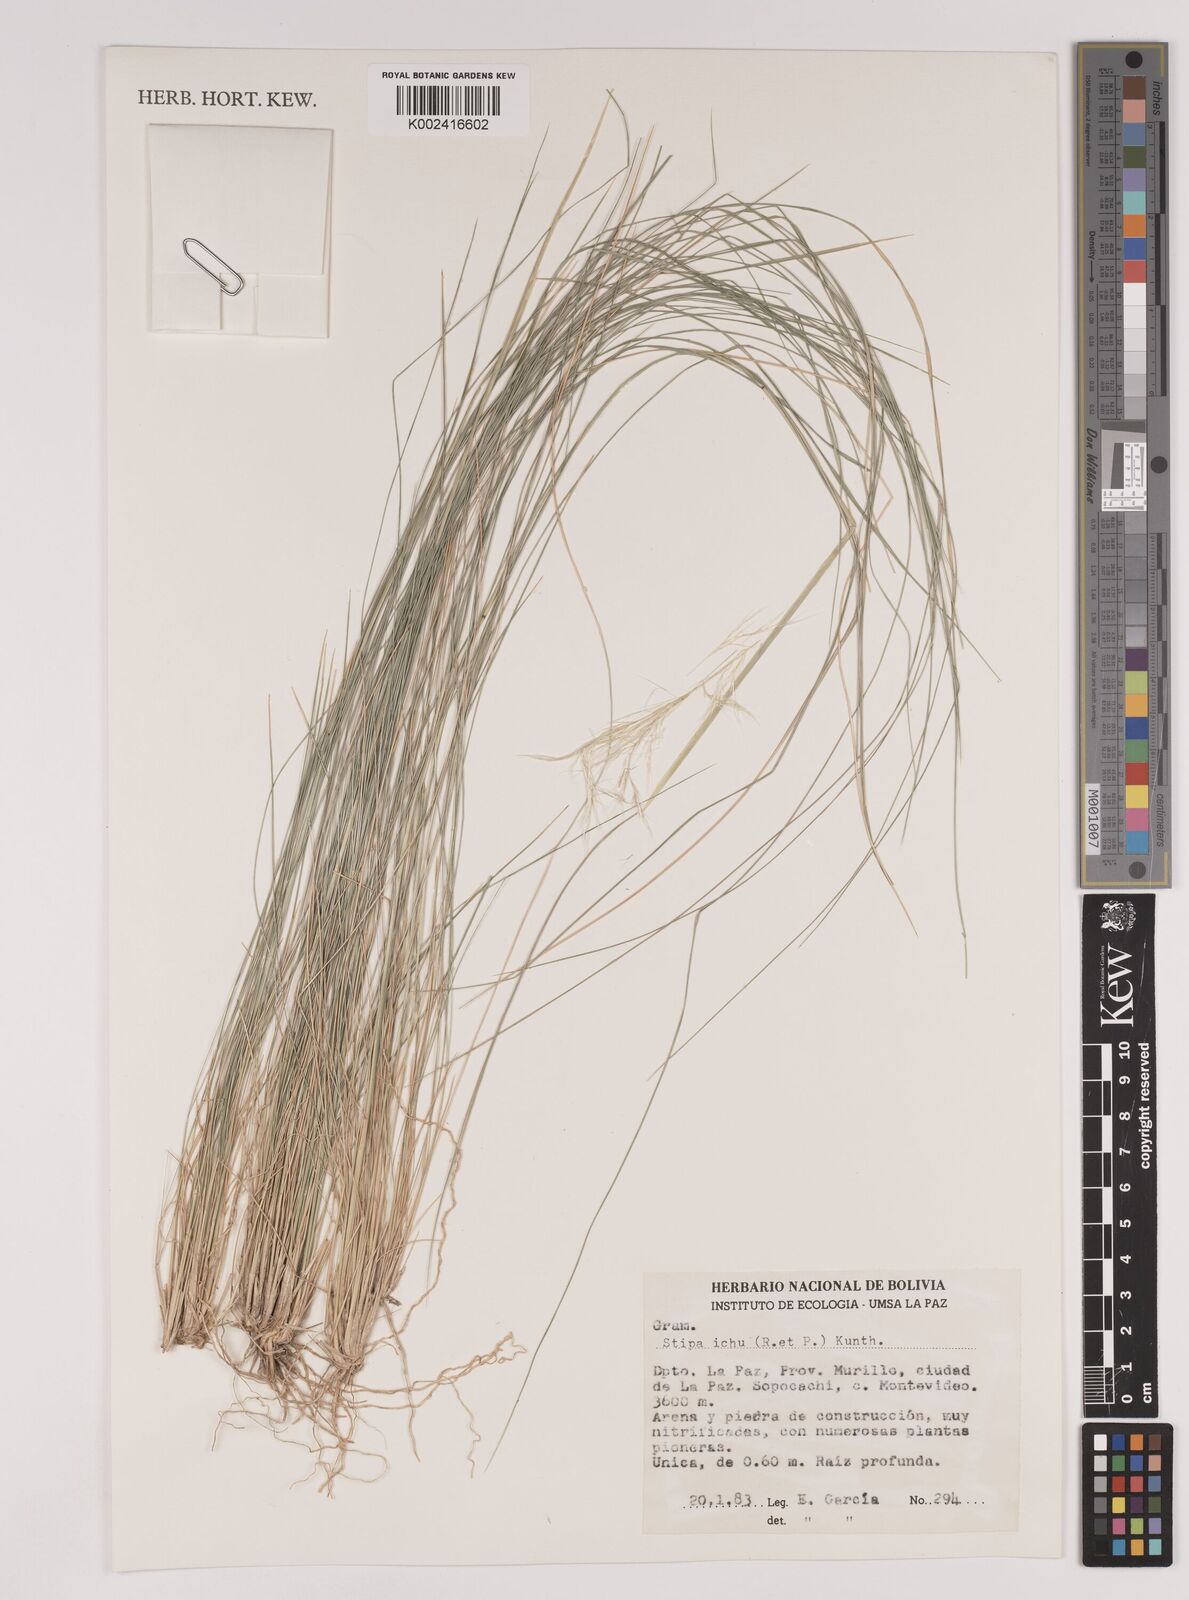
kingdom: Plantae
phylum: Tracheophyta
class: Liliopsida
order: Poales
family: Poaceae
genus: Jarava
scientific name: Jarava leptostachya
